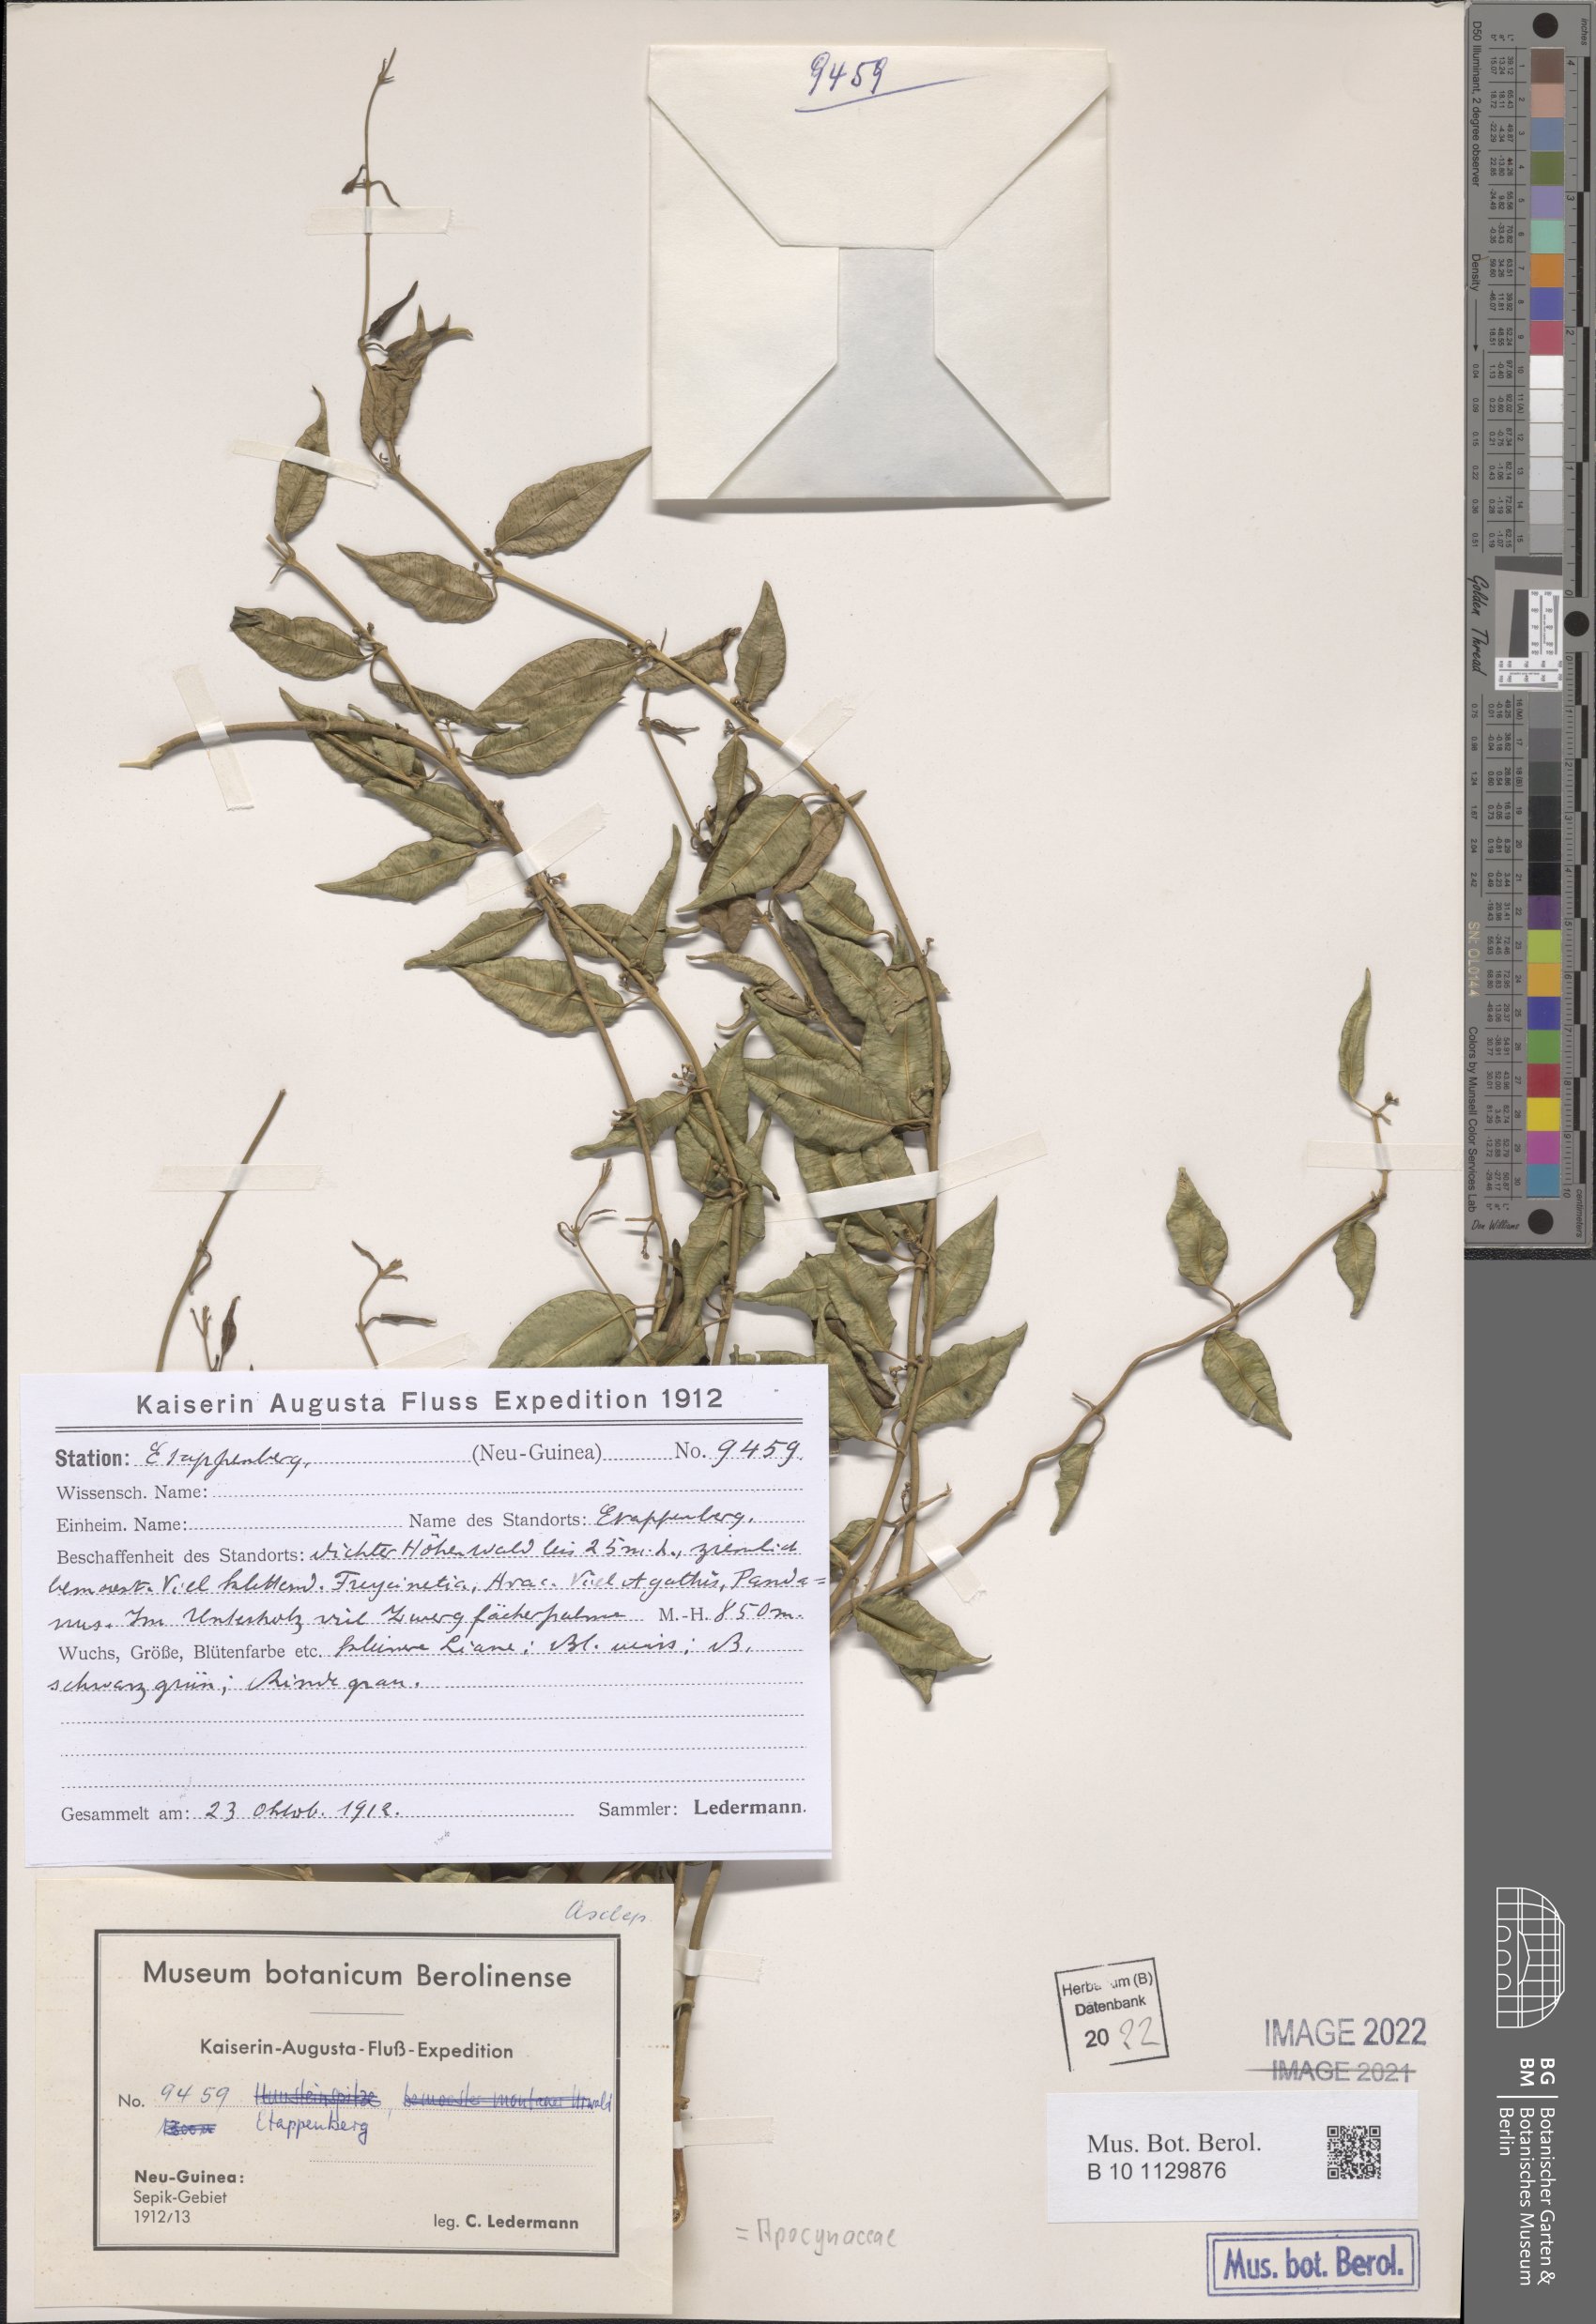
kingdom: Plantae
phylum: Tracheophyta
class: Magnoliopsida
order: Gentianales
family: Apocynaceae
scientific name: Apocynaceae
